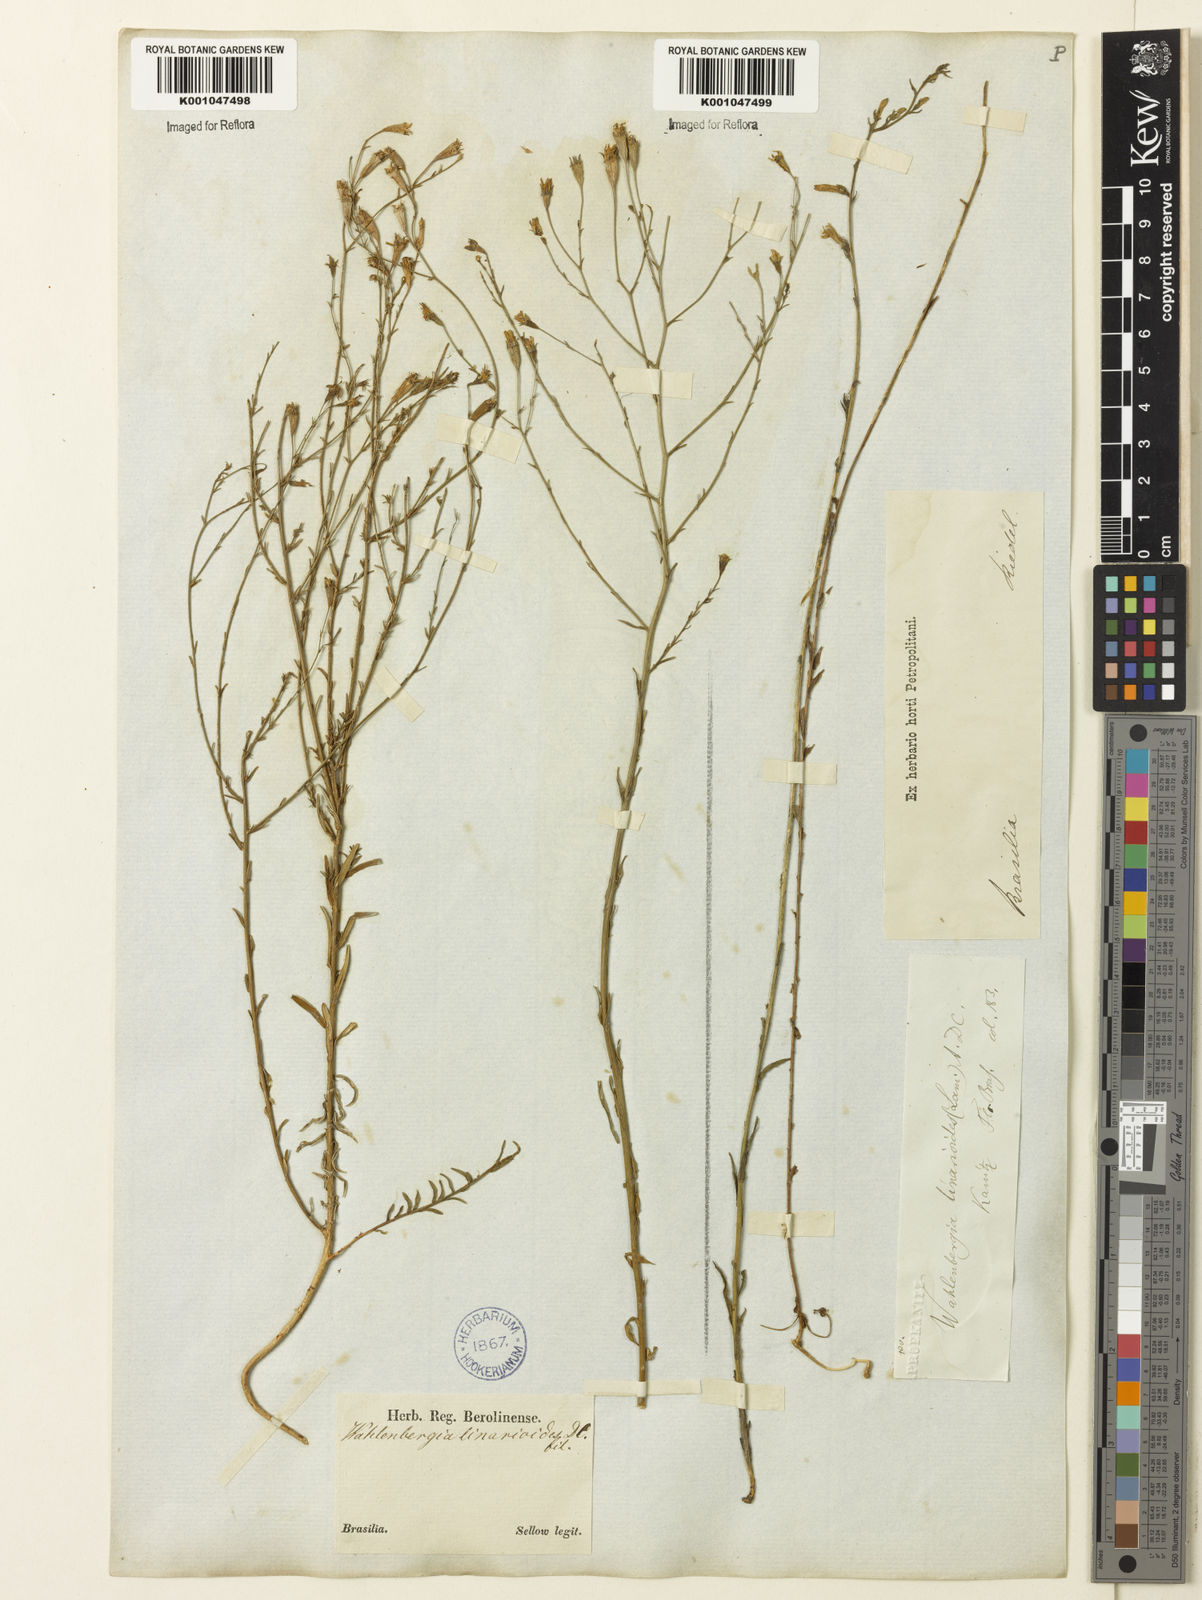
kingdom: Plantae
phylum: Tracheophyta
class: Magnoliopsida
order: Asterales
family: Campanulaceae
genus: Wahlenbergia
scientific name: Wahlenbergia linarioides
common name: Tuffybells
